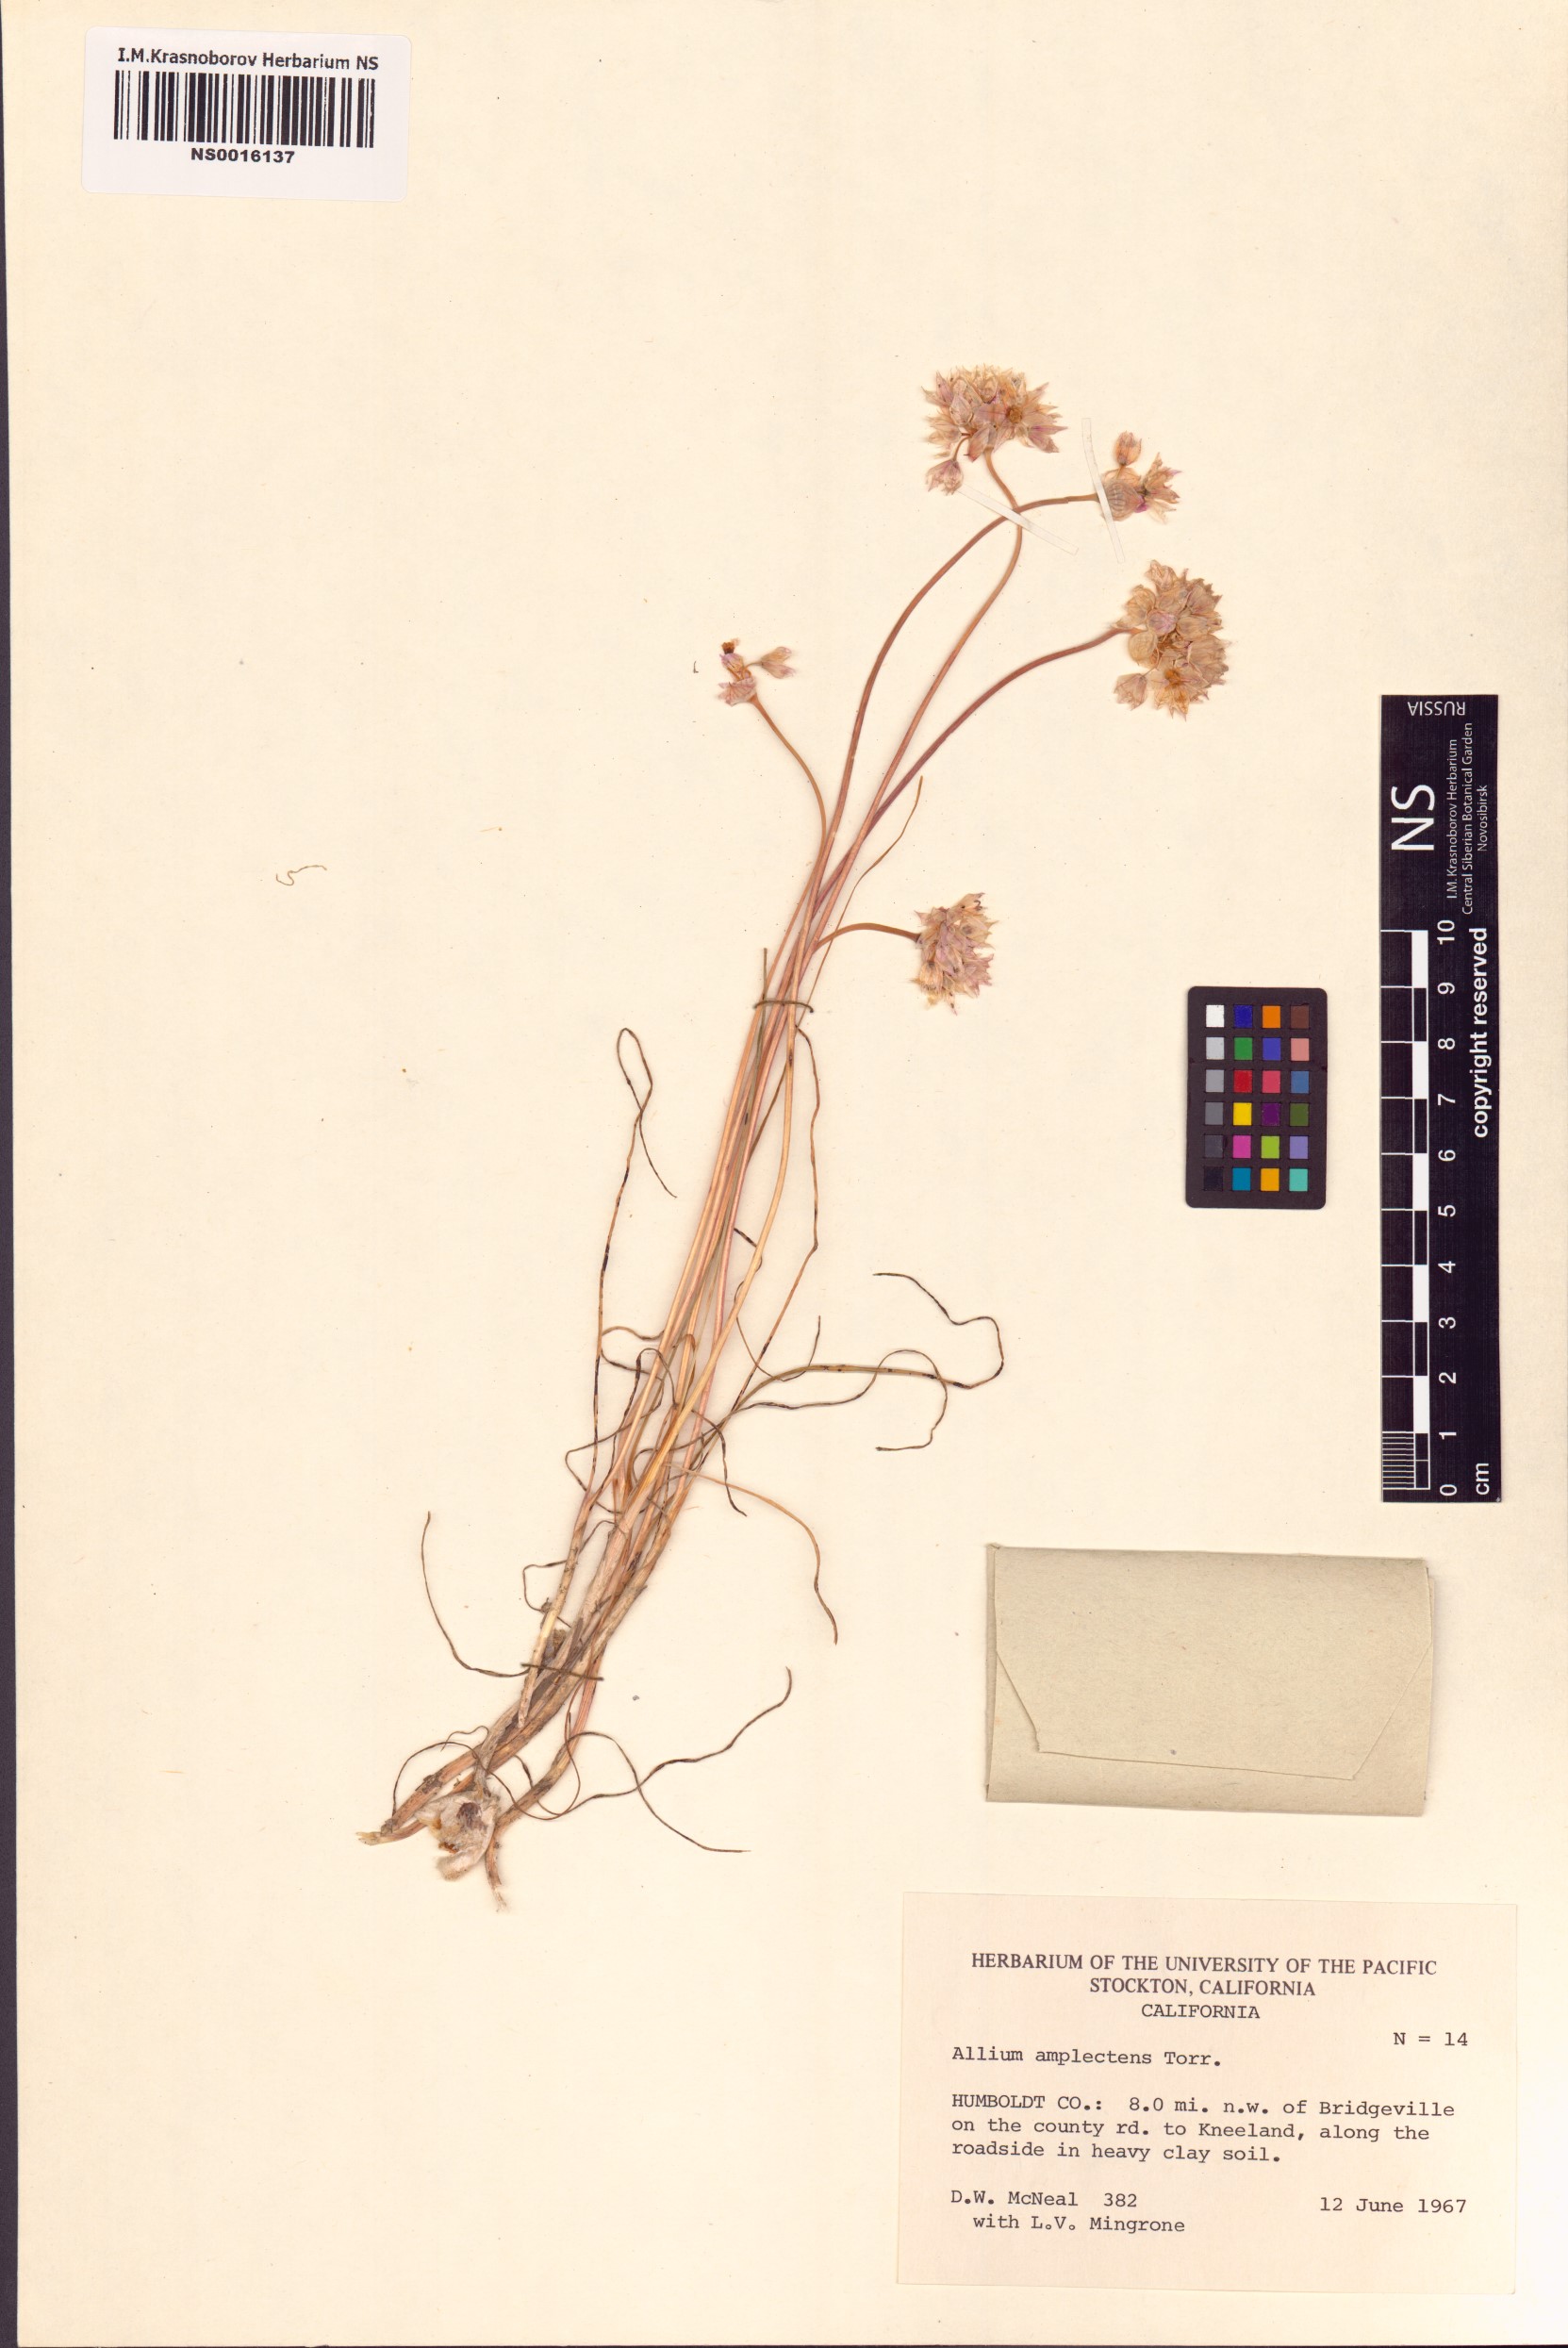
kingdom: Plantae
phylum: Tracheophyta
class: Liliopsida
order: Asparagales
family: Amaryllidaceae
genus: Allium
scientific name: Allium amplectens
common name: Narrow-leaved onion
